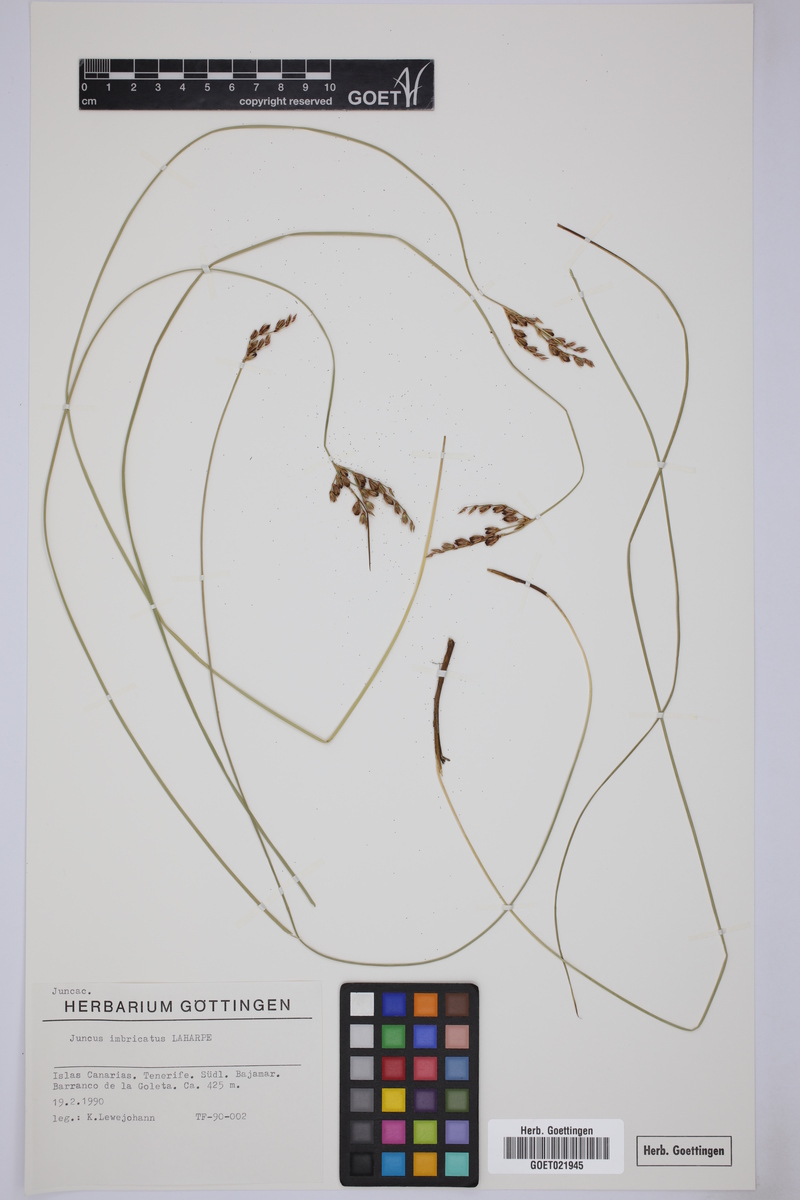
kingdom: Plantae
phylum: Tracheophyta
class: Liliopsida
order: Poales
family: Juncaceae
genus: Juncus
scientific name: Juncus imbricatus
